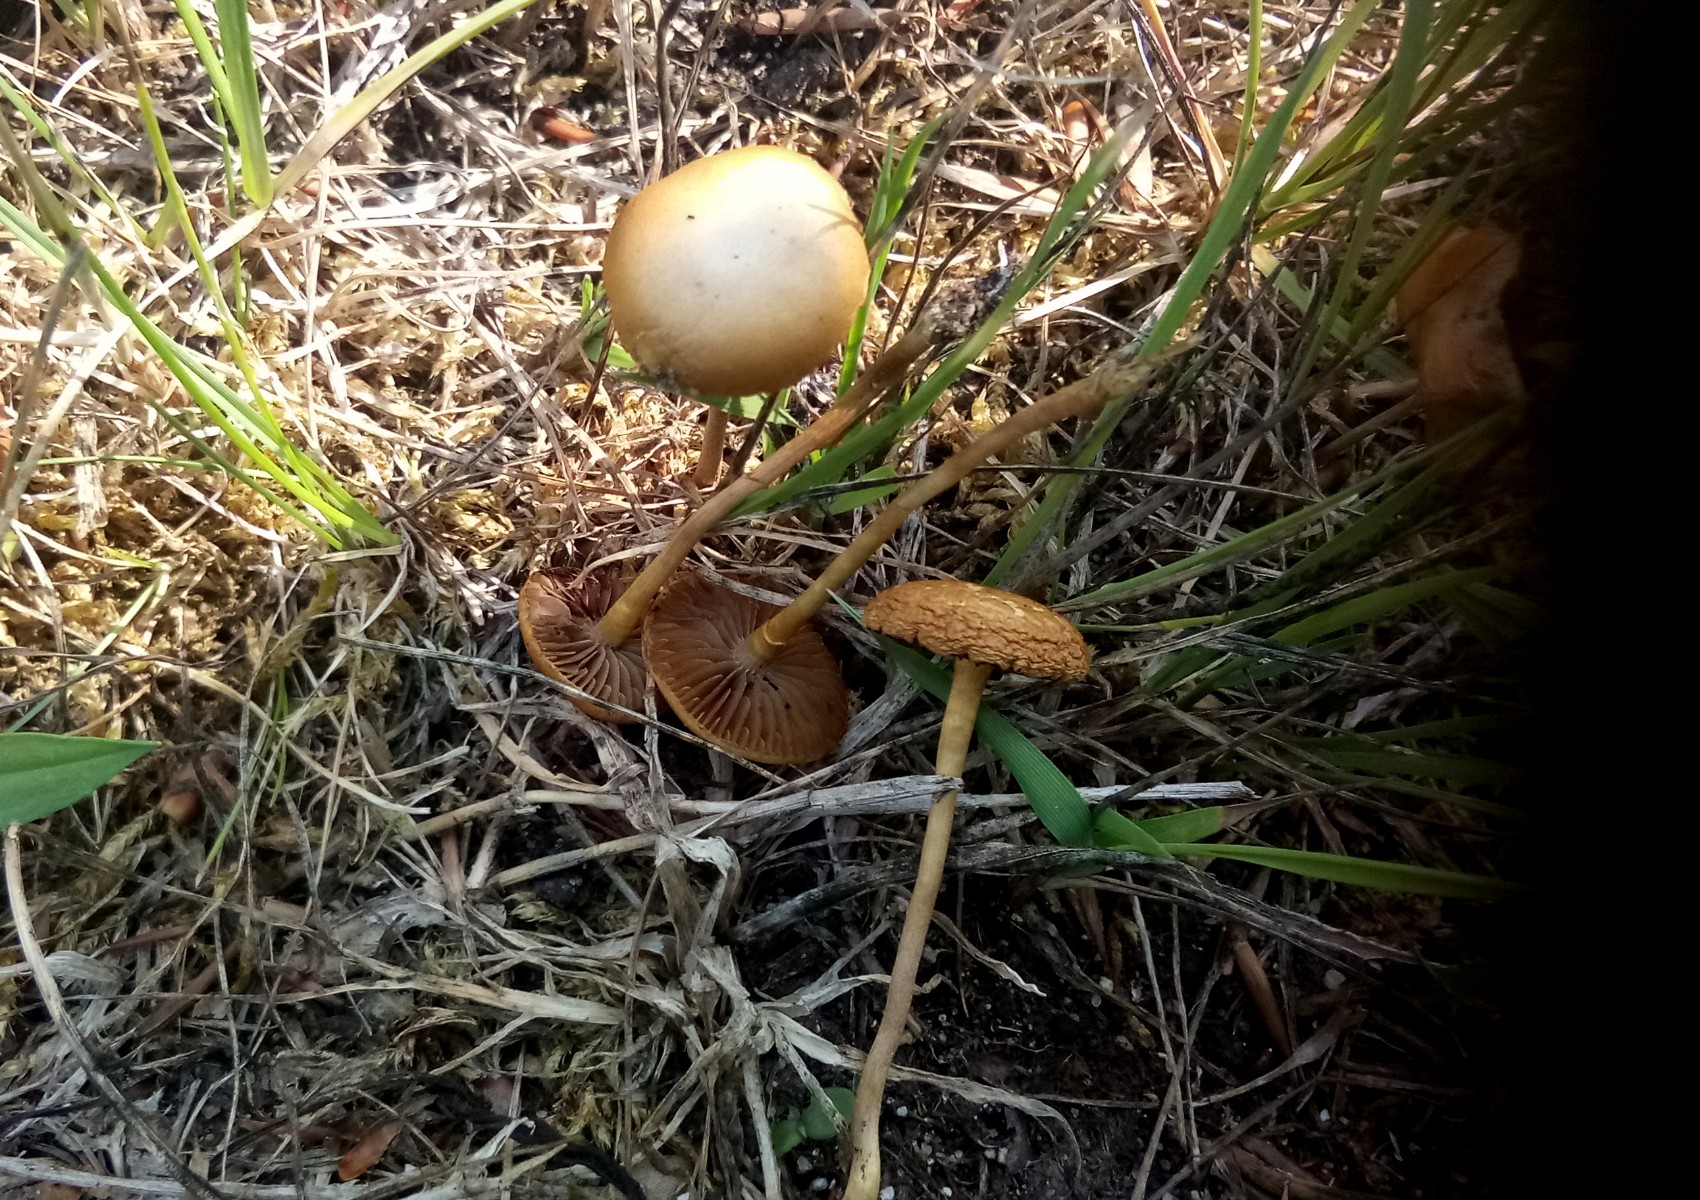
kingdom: Fungi
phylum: Basidiomycota
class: Agaricomycetes
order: Agaricales
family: Strophariaceae
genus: Agrocybe
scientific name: Agrocybe pediades
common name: almindelig agerhat
